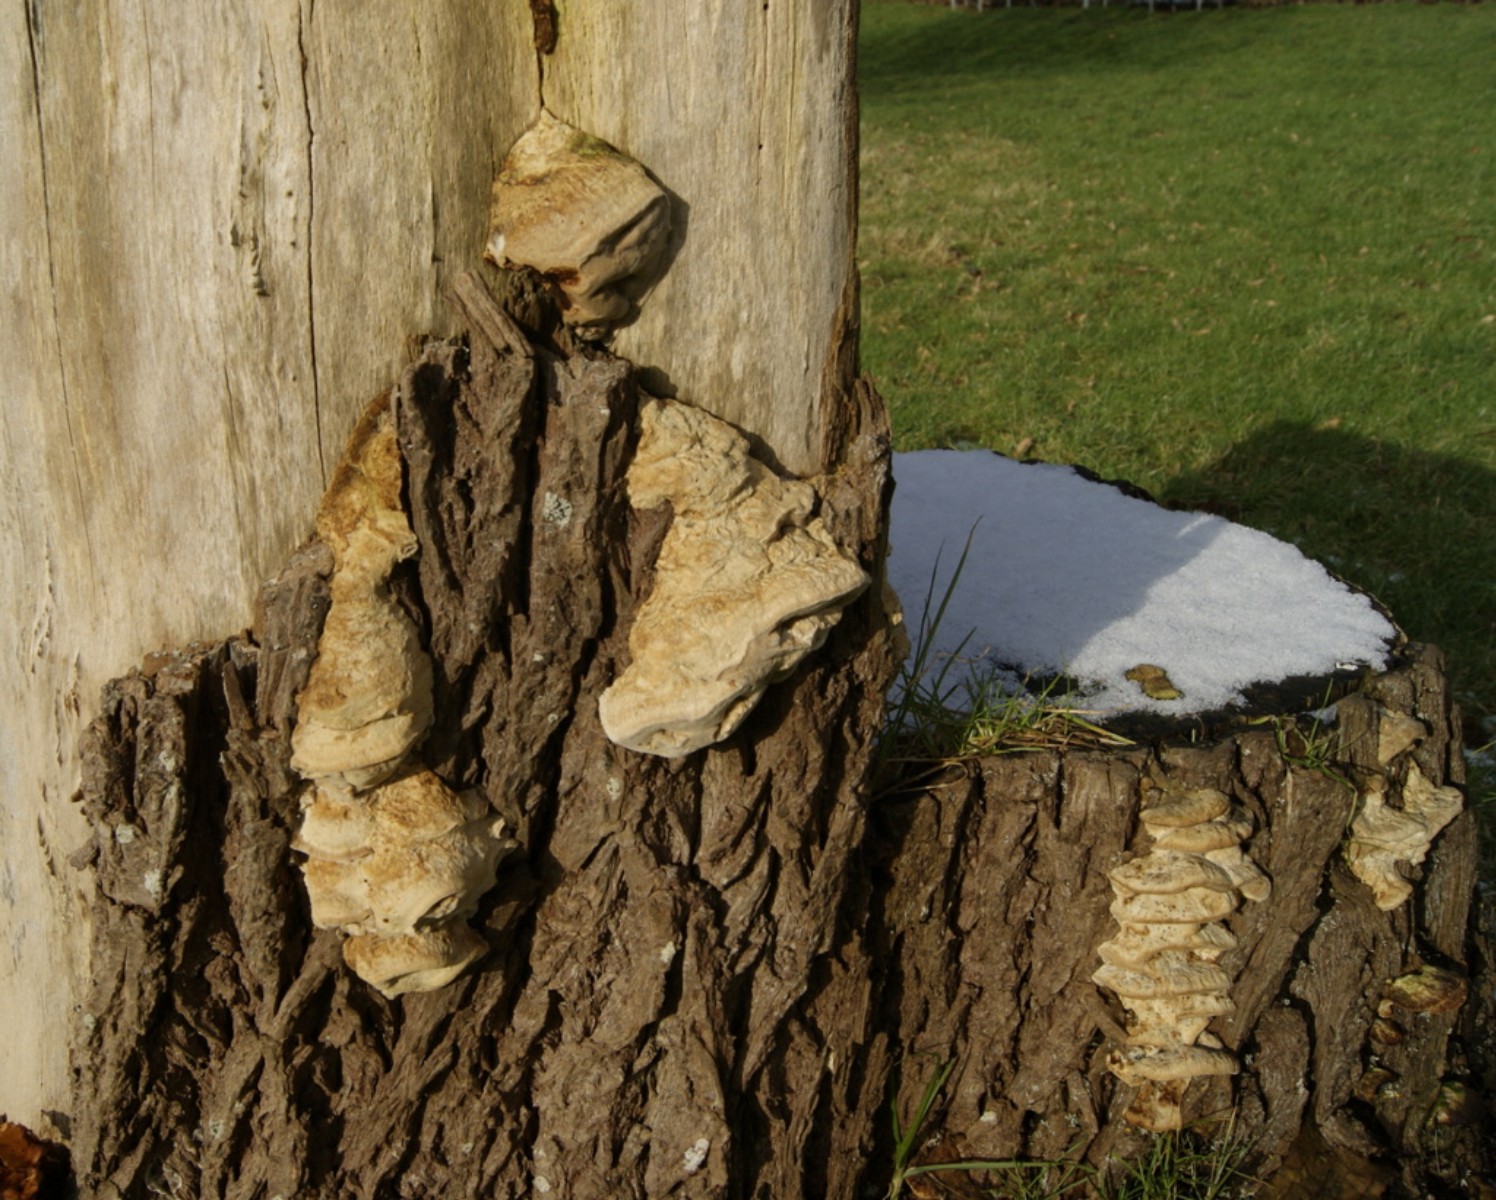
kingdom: Fungi
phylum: Basidiomycota
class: Agaricomycetes
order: Polyporales
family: Phanerochaetaceae
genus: Bjerkandera
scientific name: Bjerkandera fumosa
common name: grågul sodporesvamp
